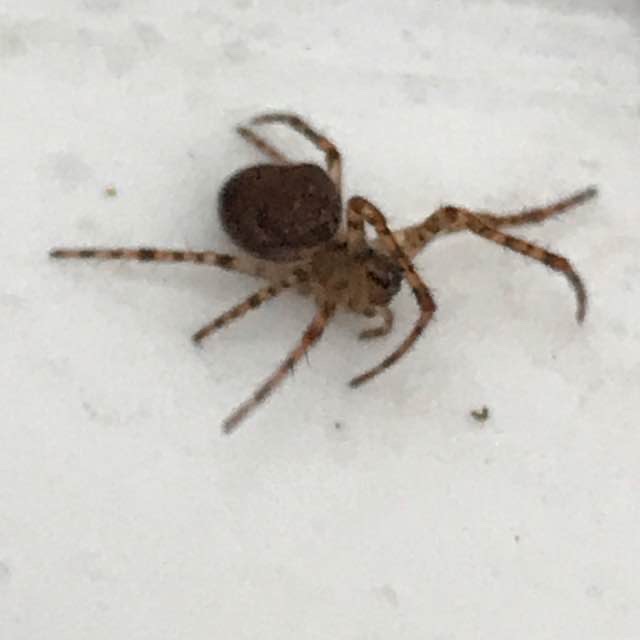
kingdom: Animalia
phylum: Arthropoda
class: Arachnida
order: Araneae
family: Tetragnathidae
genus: Metellina
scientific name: Metellina merianae
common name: Skyggehjulspinder
